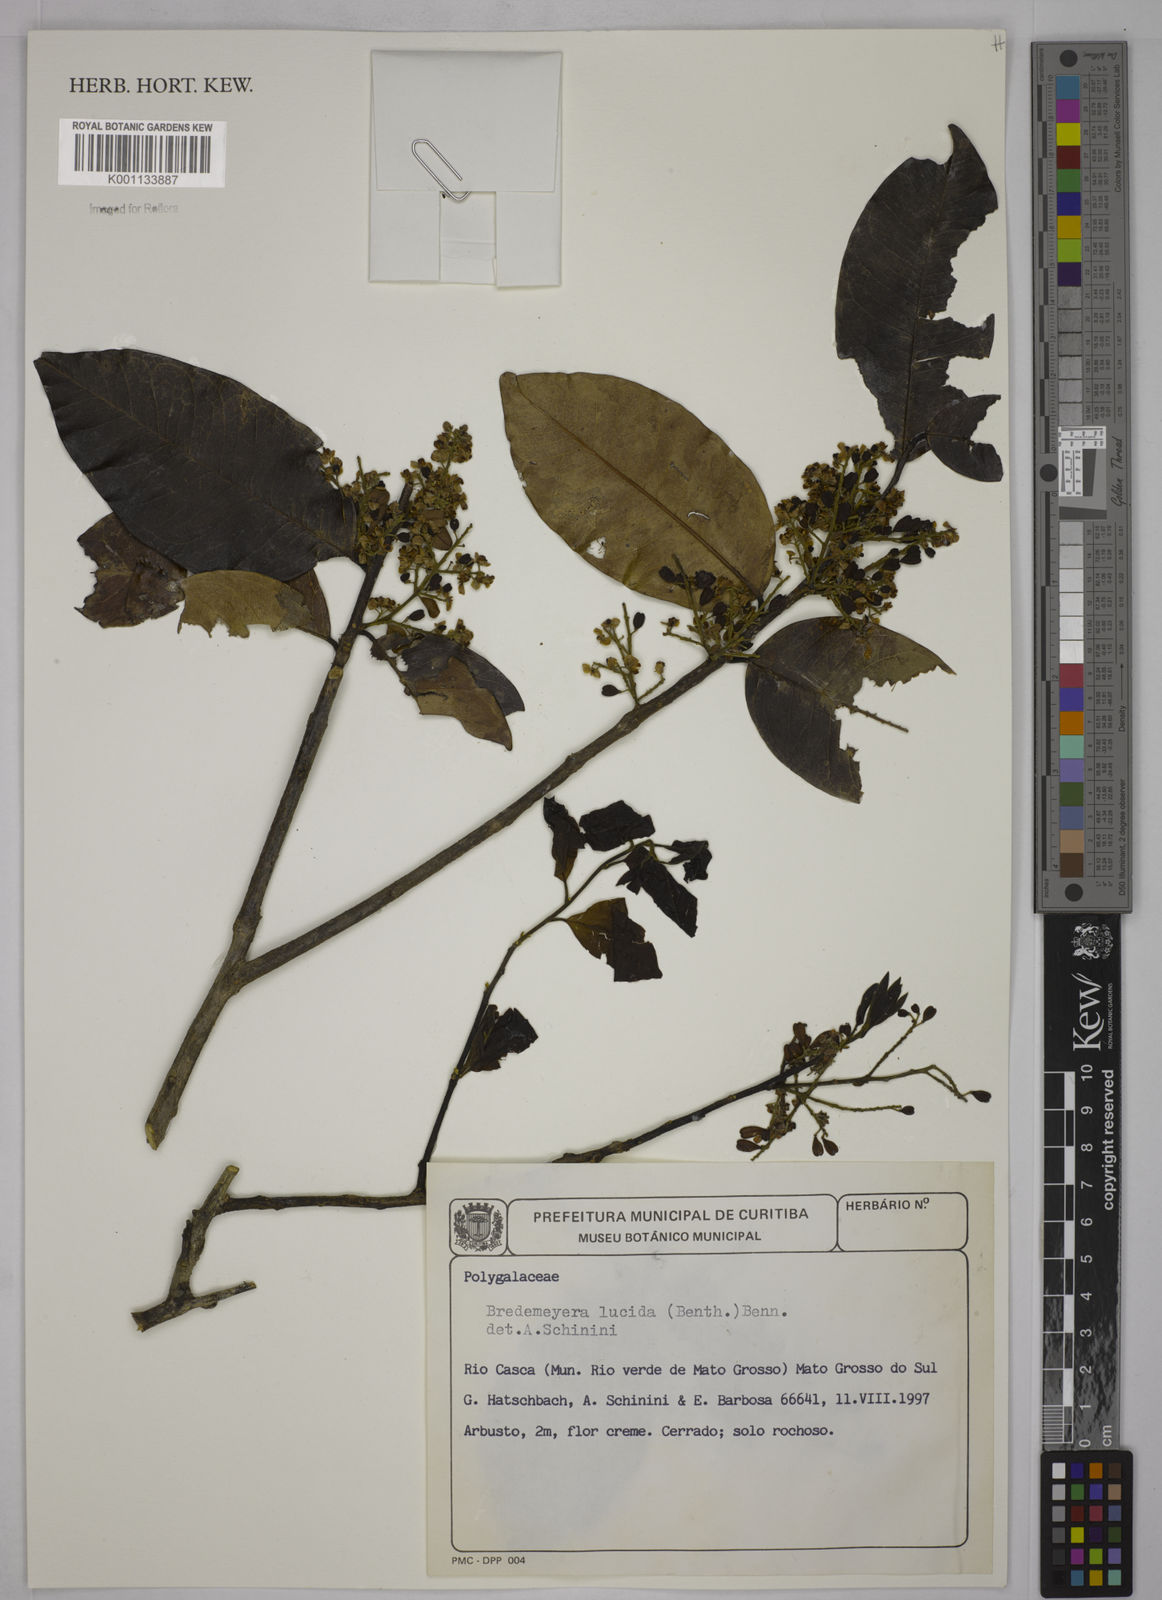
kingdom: Plantae
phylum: Tracheophyta
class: Magnoliopsida
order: Fabales
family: Polygalaceae
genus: Bredemeyera
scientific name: Bredemeyera lucida
